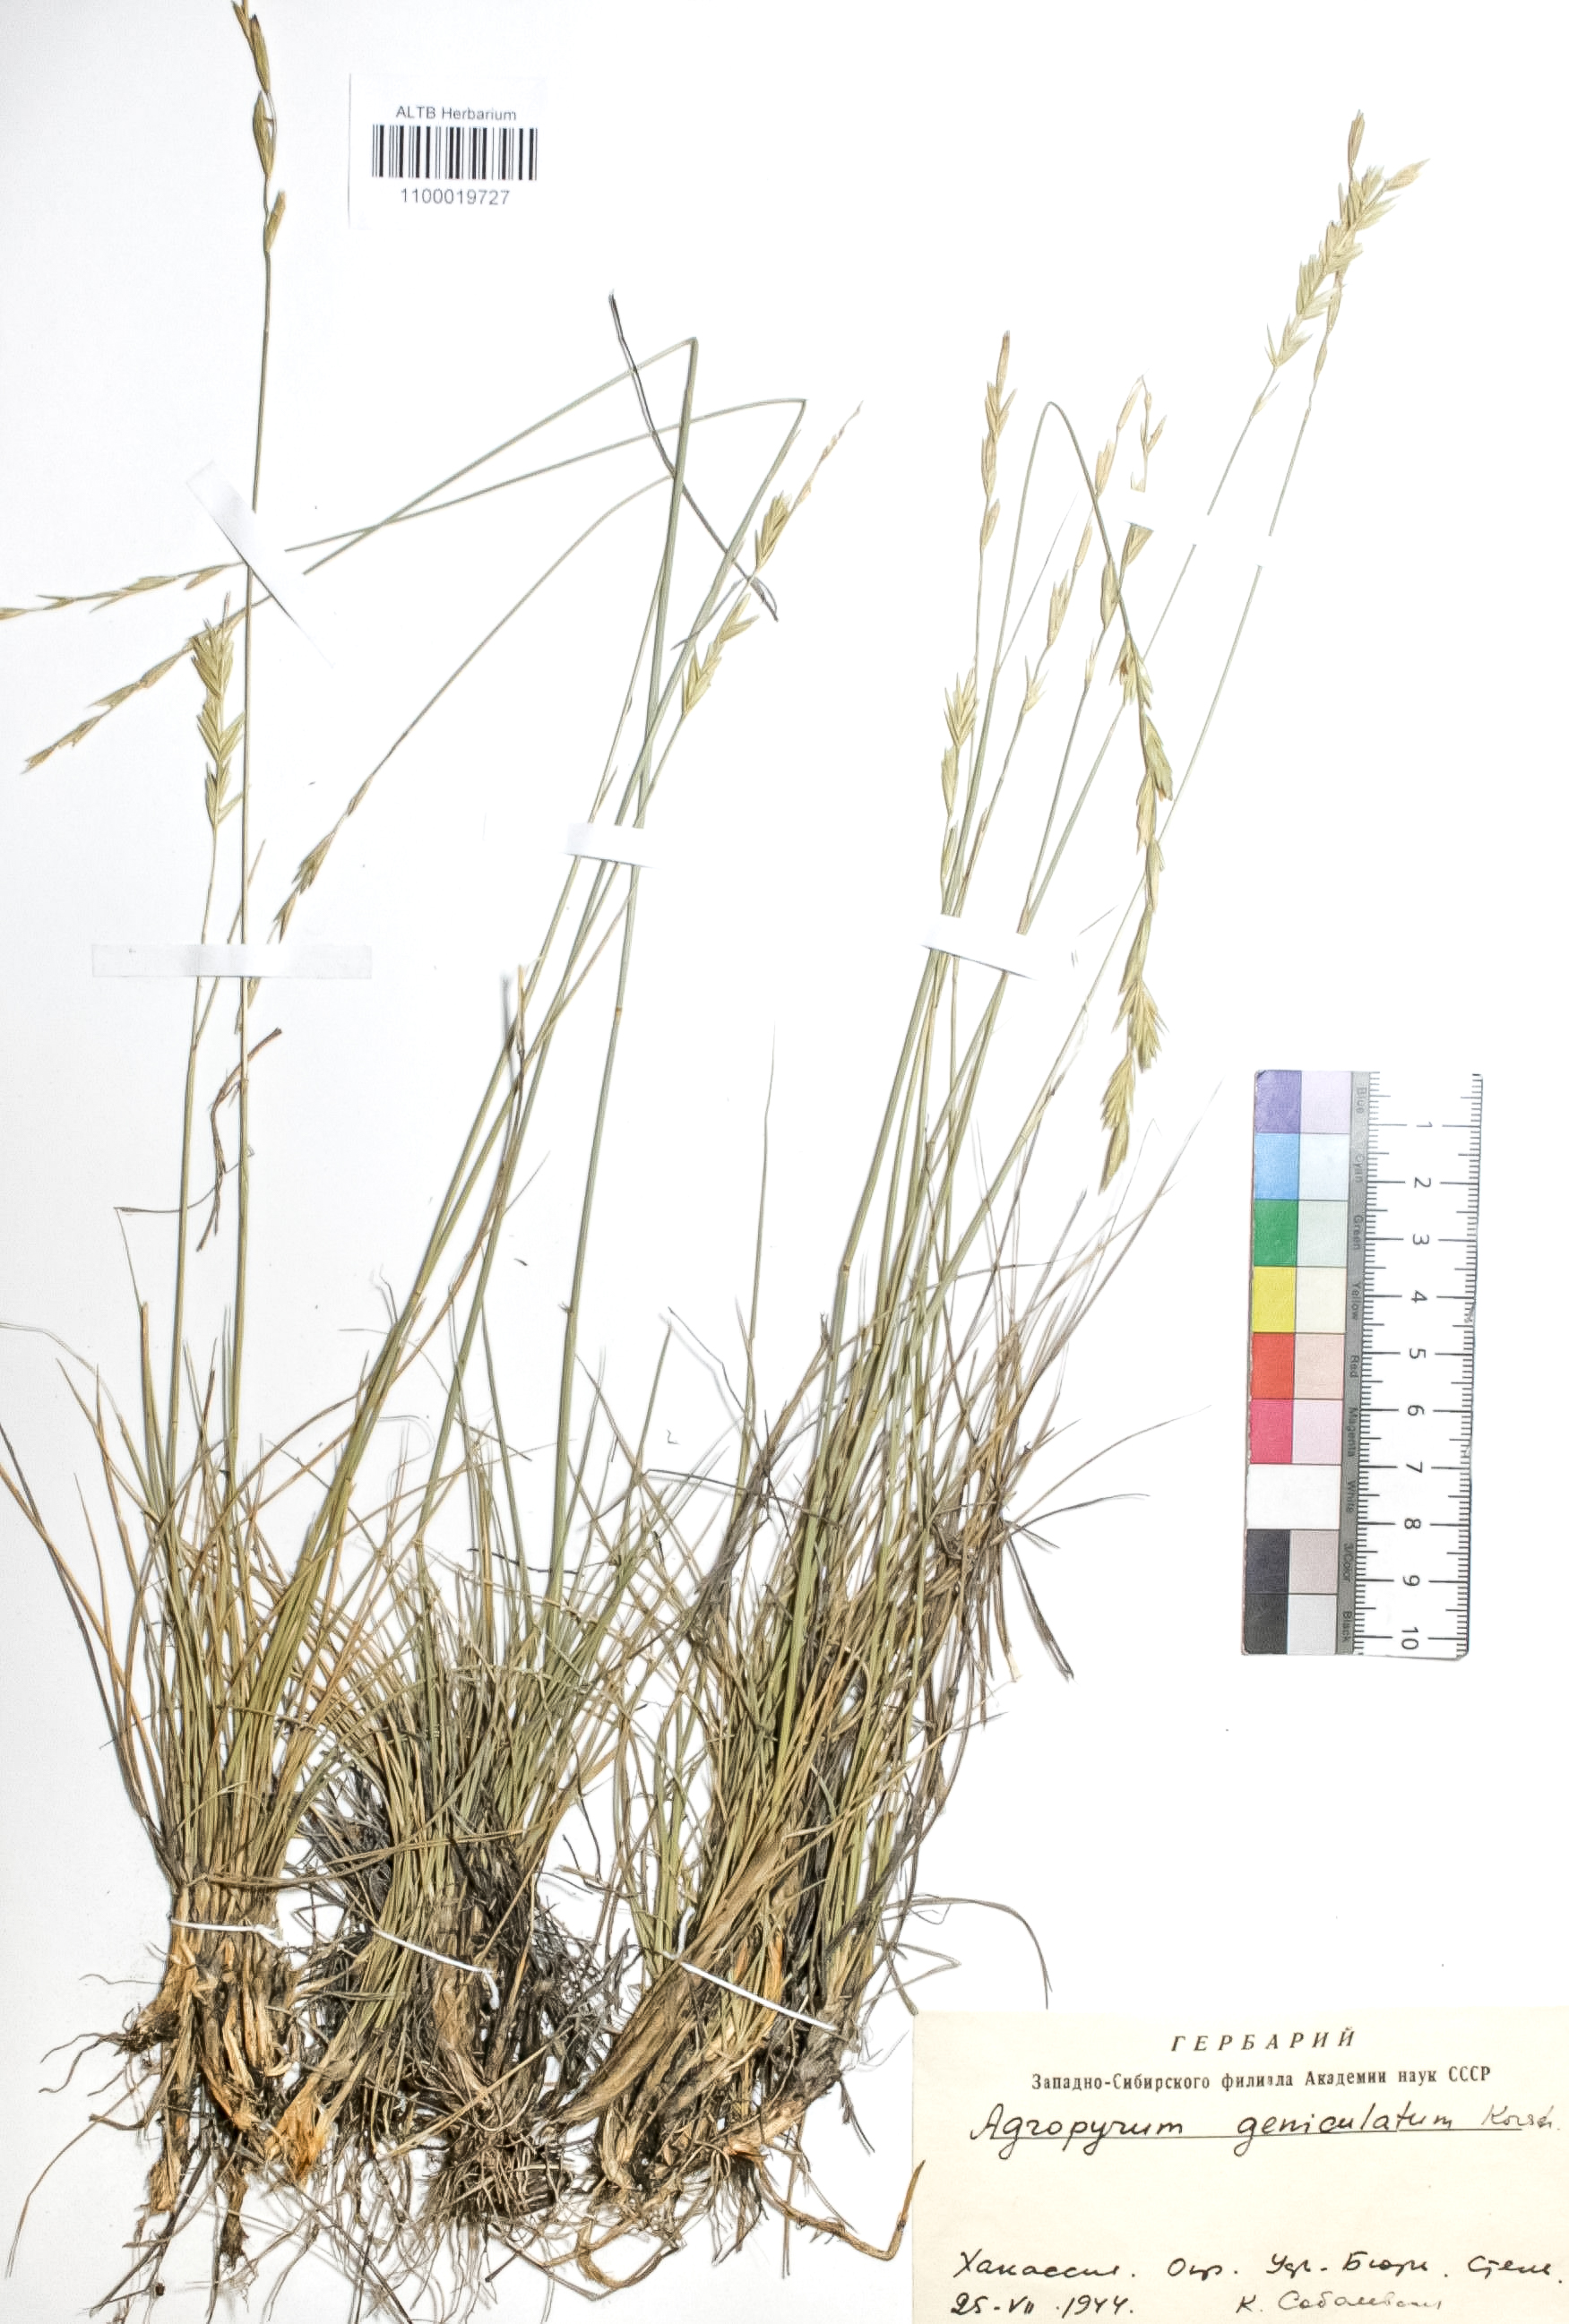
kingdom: Plantae
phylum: Tracheophyta
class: Liliopsida
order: Poales
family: Poaceae
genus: Pseudoroegneria
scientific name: Pseudoroegneria geniculata
